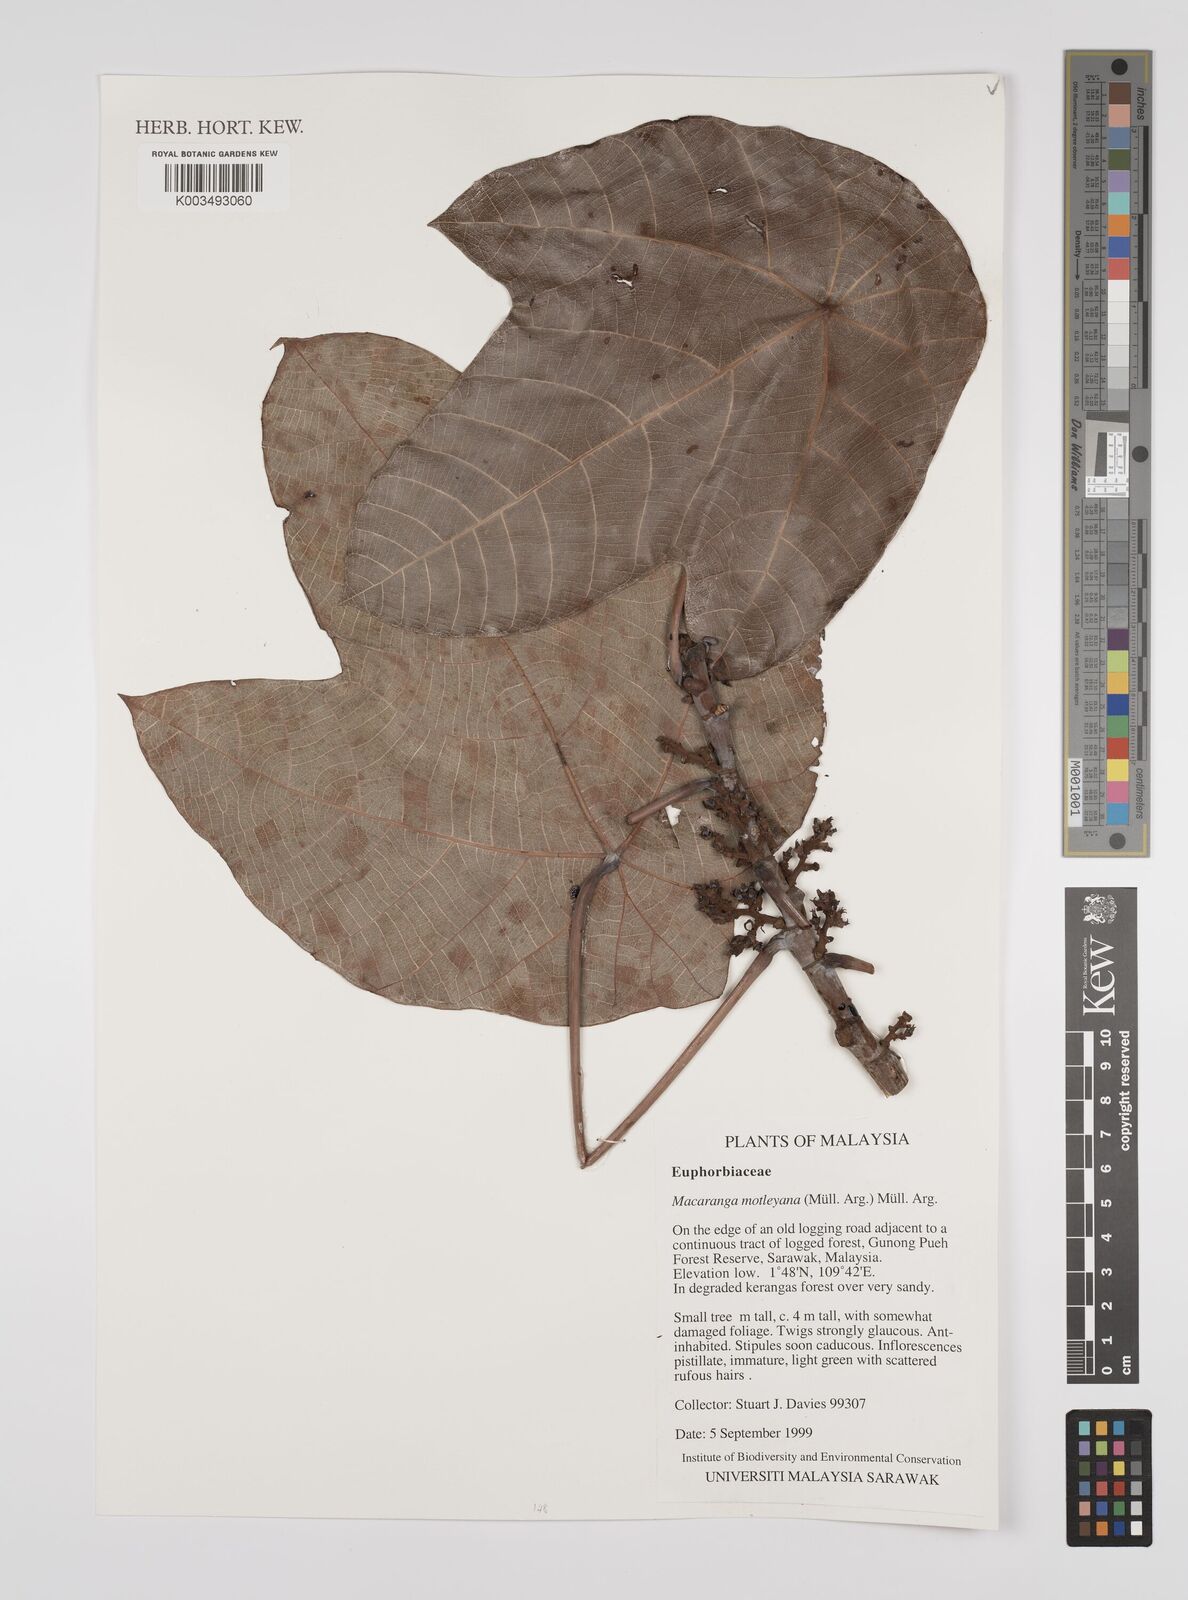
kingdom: Plantae
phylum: Tracheophyta
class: Magnoliopsida
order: Malpighiales
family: Euphorbiaceae
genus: Macaranga
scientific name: Macaranga motleyana
